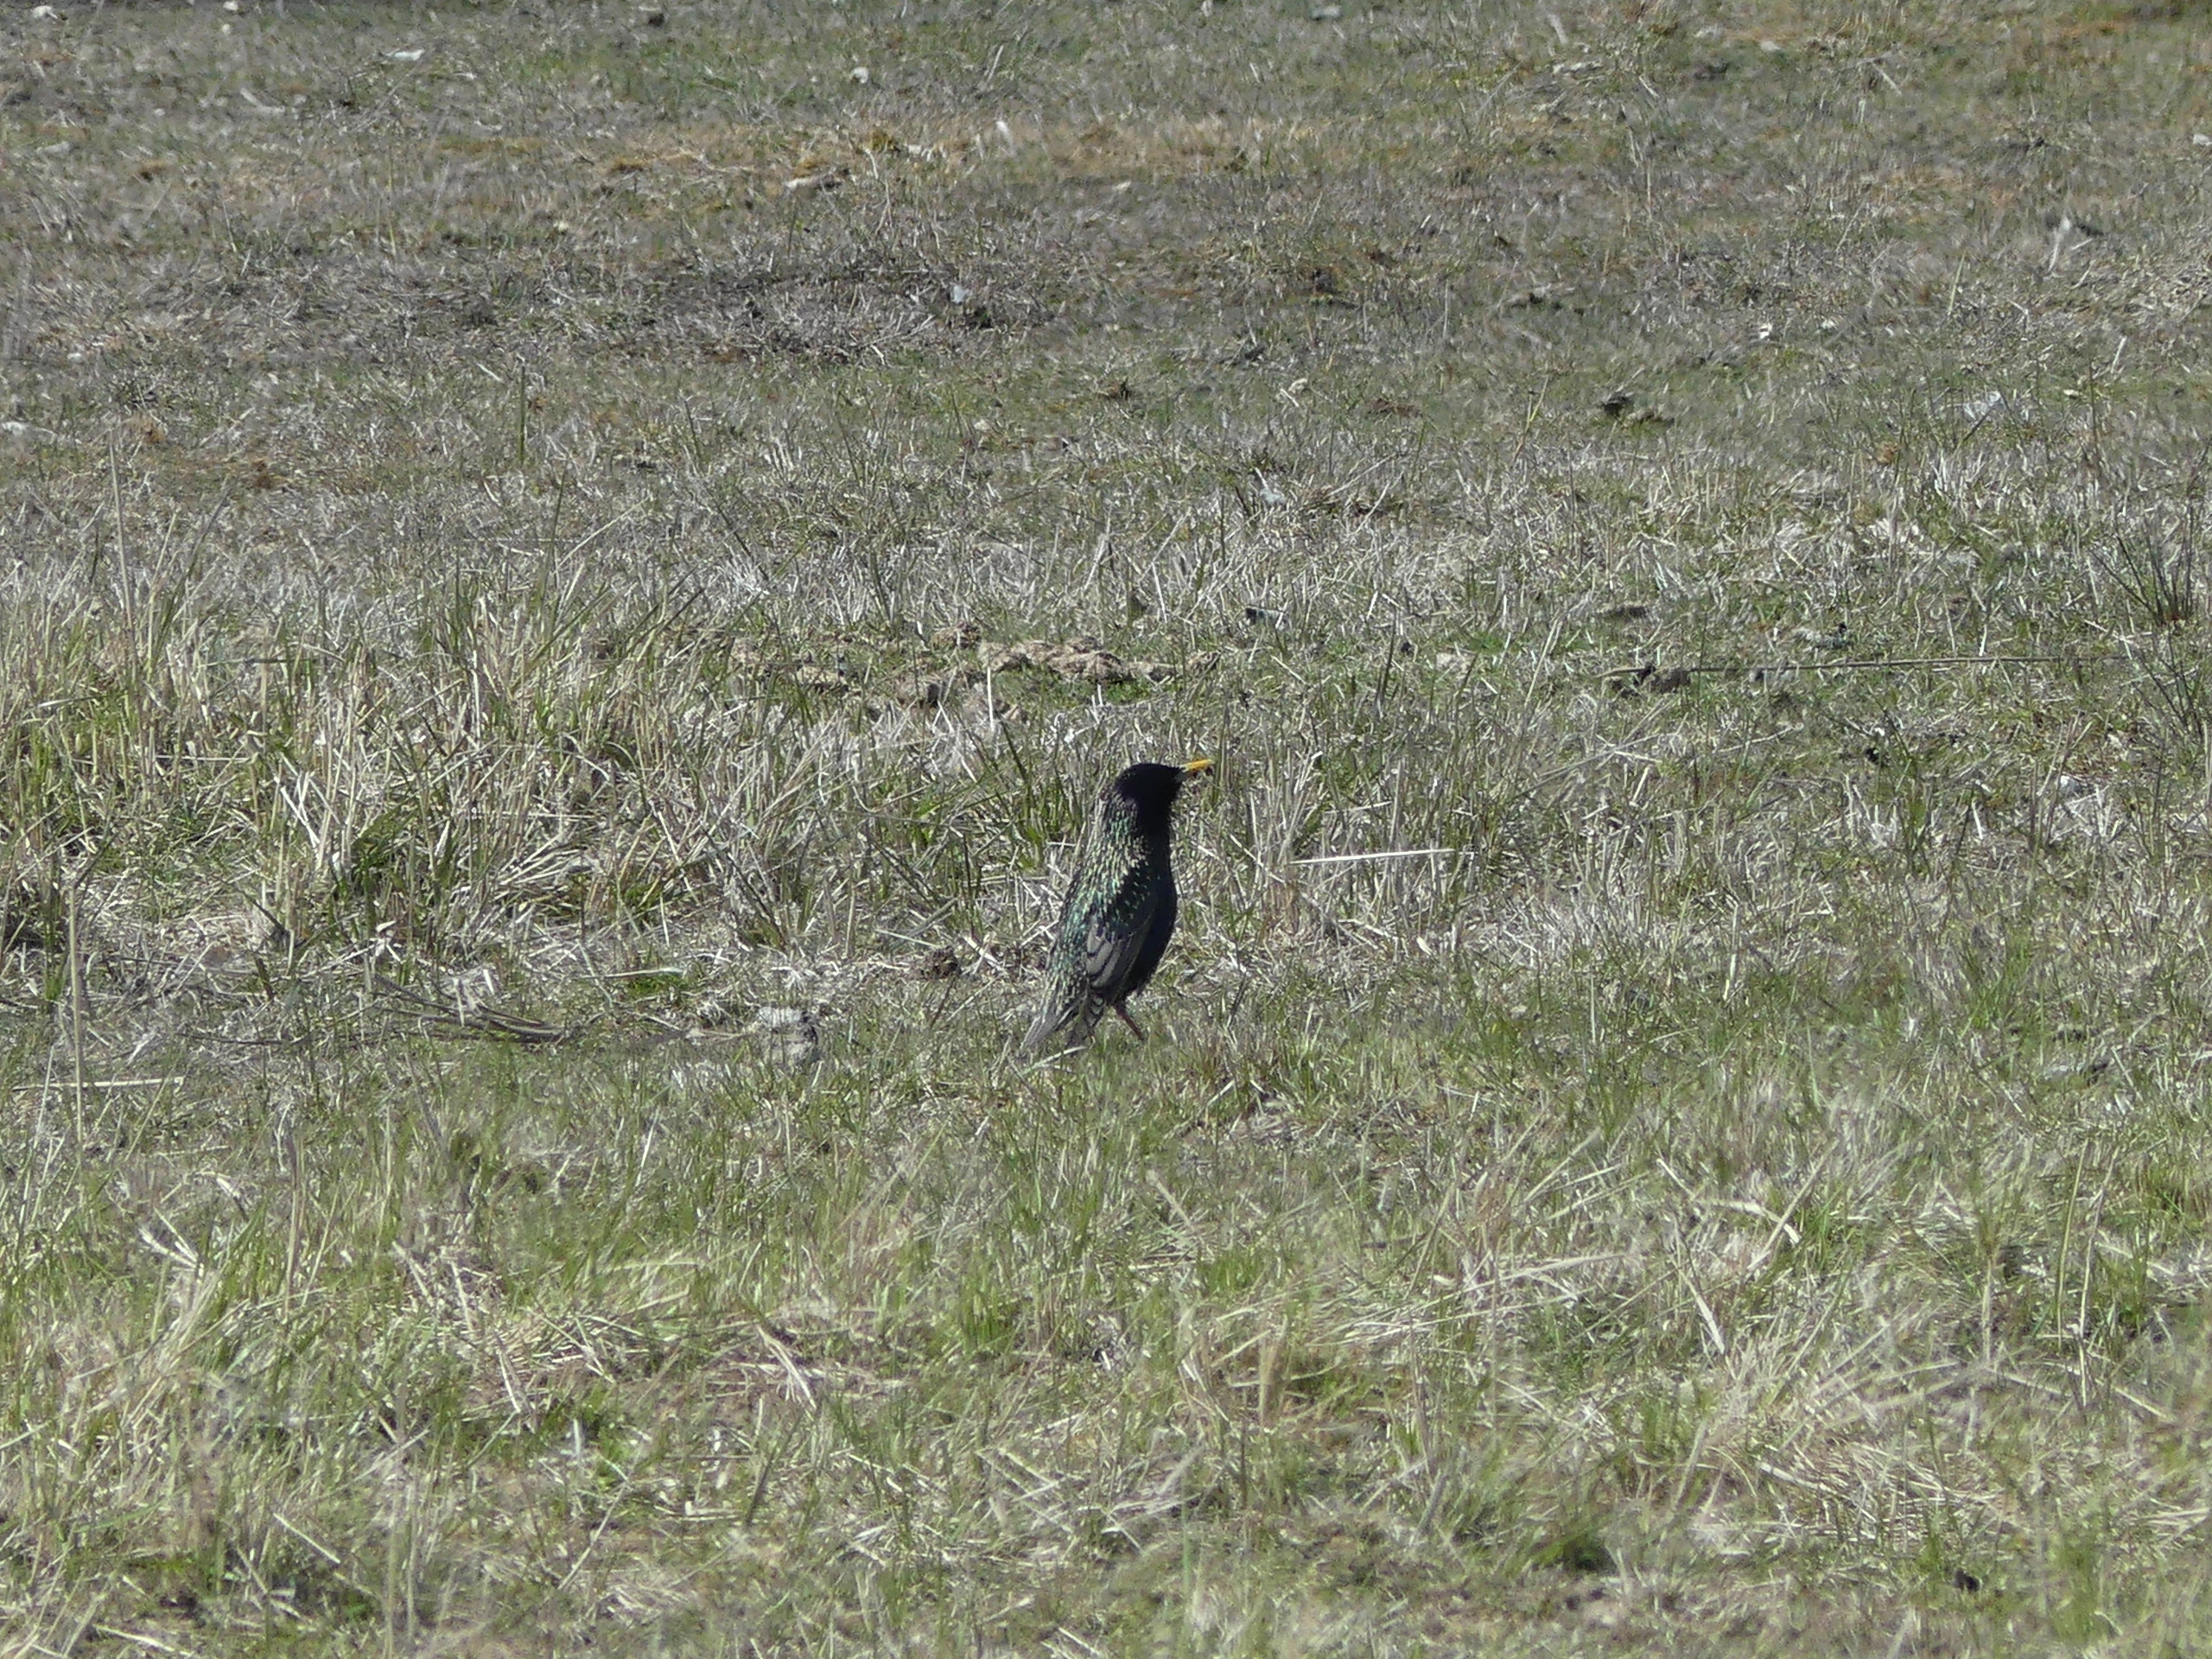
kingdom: Animalia
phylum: Chordata
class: Aves
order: Passeriformes
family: Sturnidae
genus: Sturnus
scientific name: Sturnus vulgaris
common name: Stær
